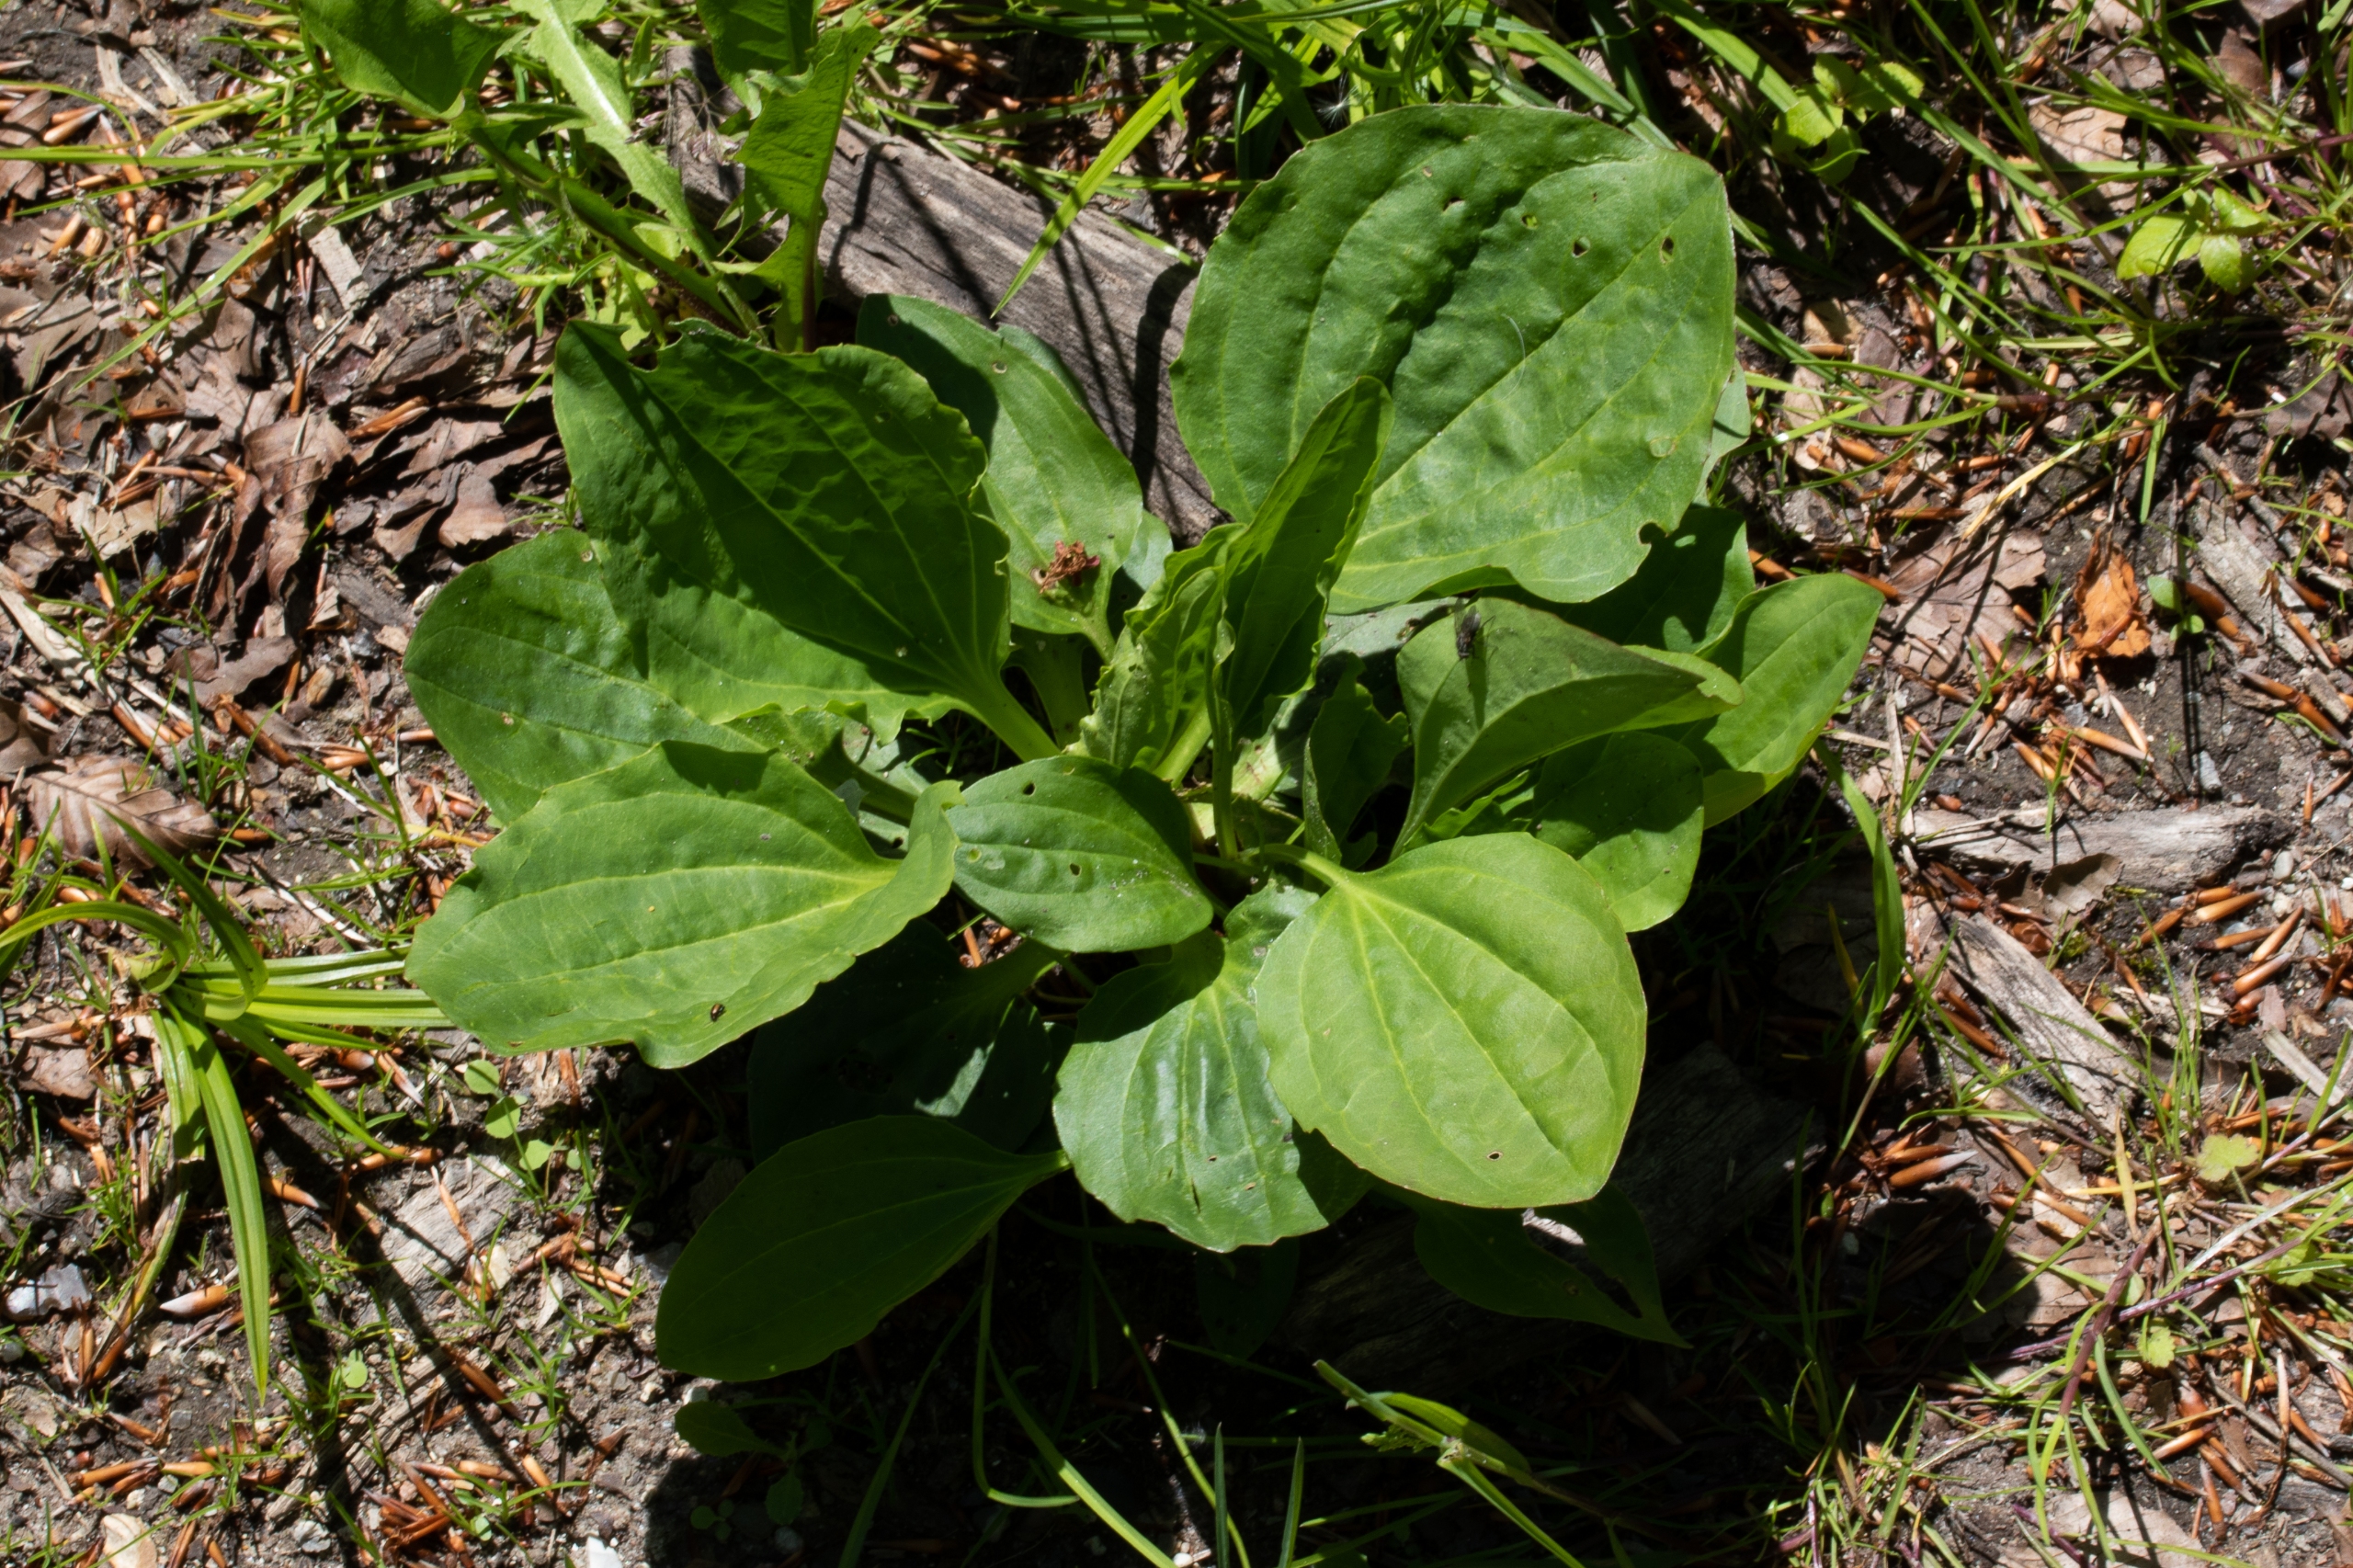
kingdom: Plantae
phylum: Tracheophyta
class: Magnoliopsida
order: Lamiales
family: Plantaginaceae
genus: Plantago
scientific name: Plantago major
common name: Glat vejbred
